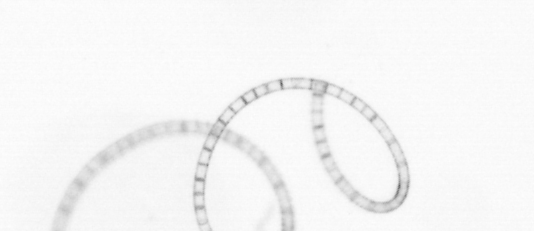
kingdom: Chromista
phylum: Ochrophyta
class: Bacillariophyceae
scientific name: Bacillariophyceae
